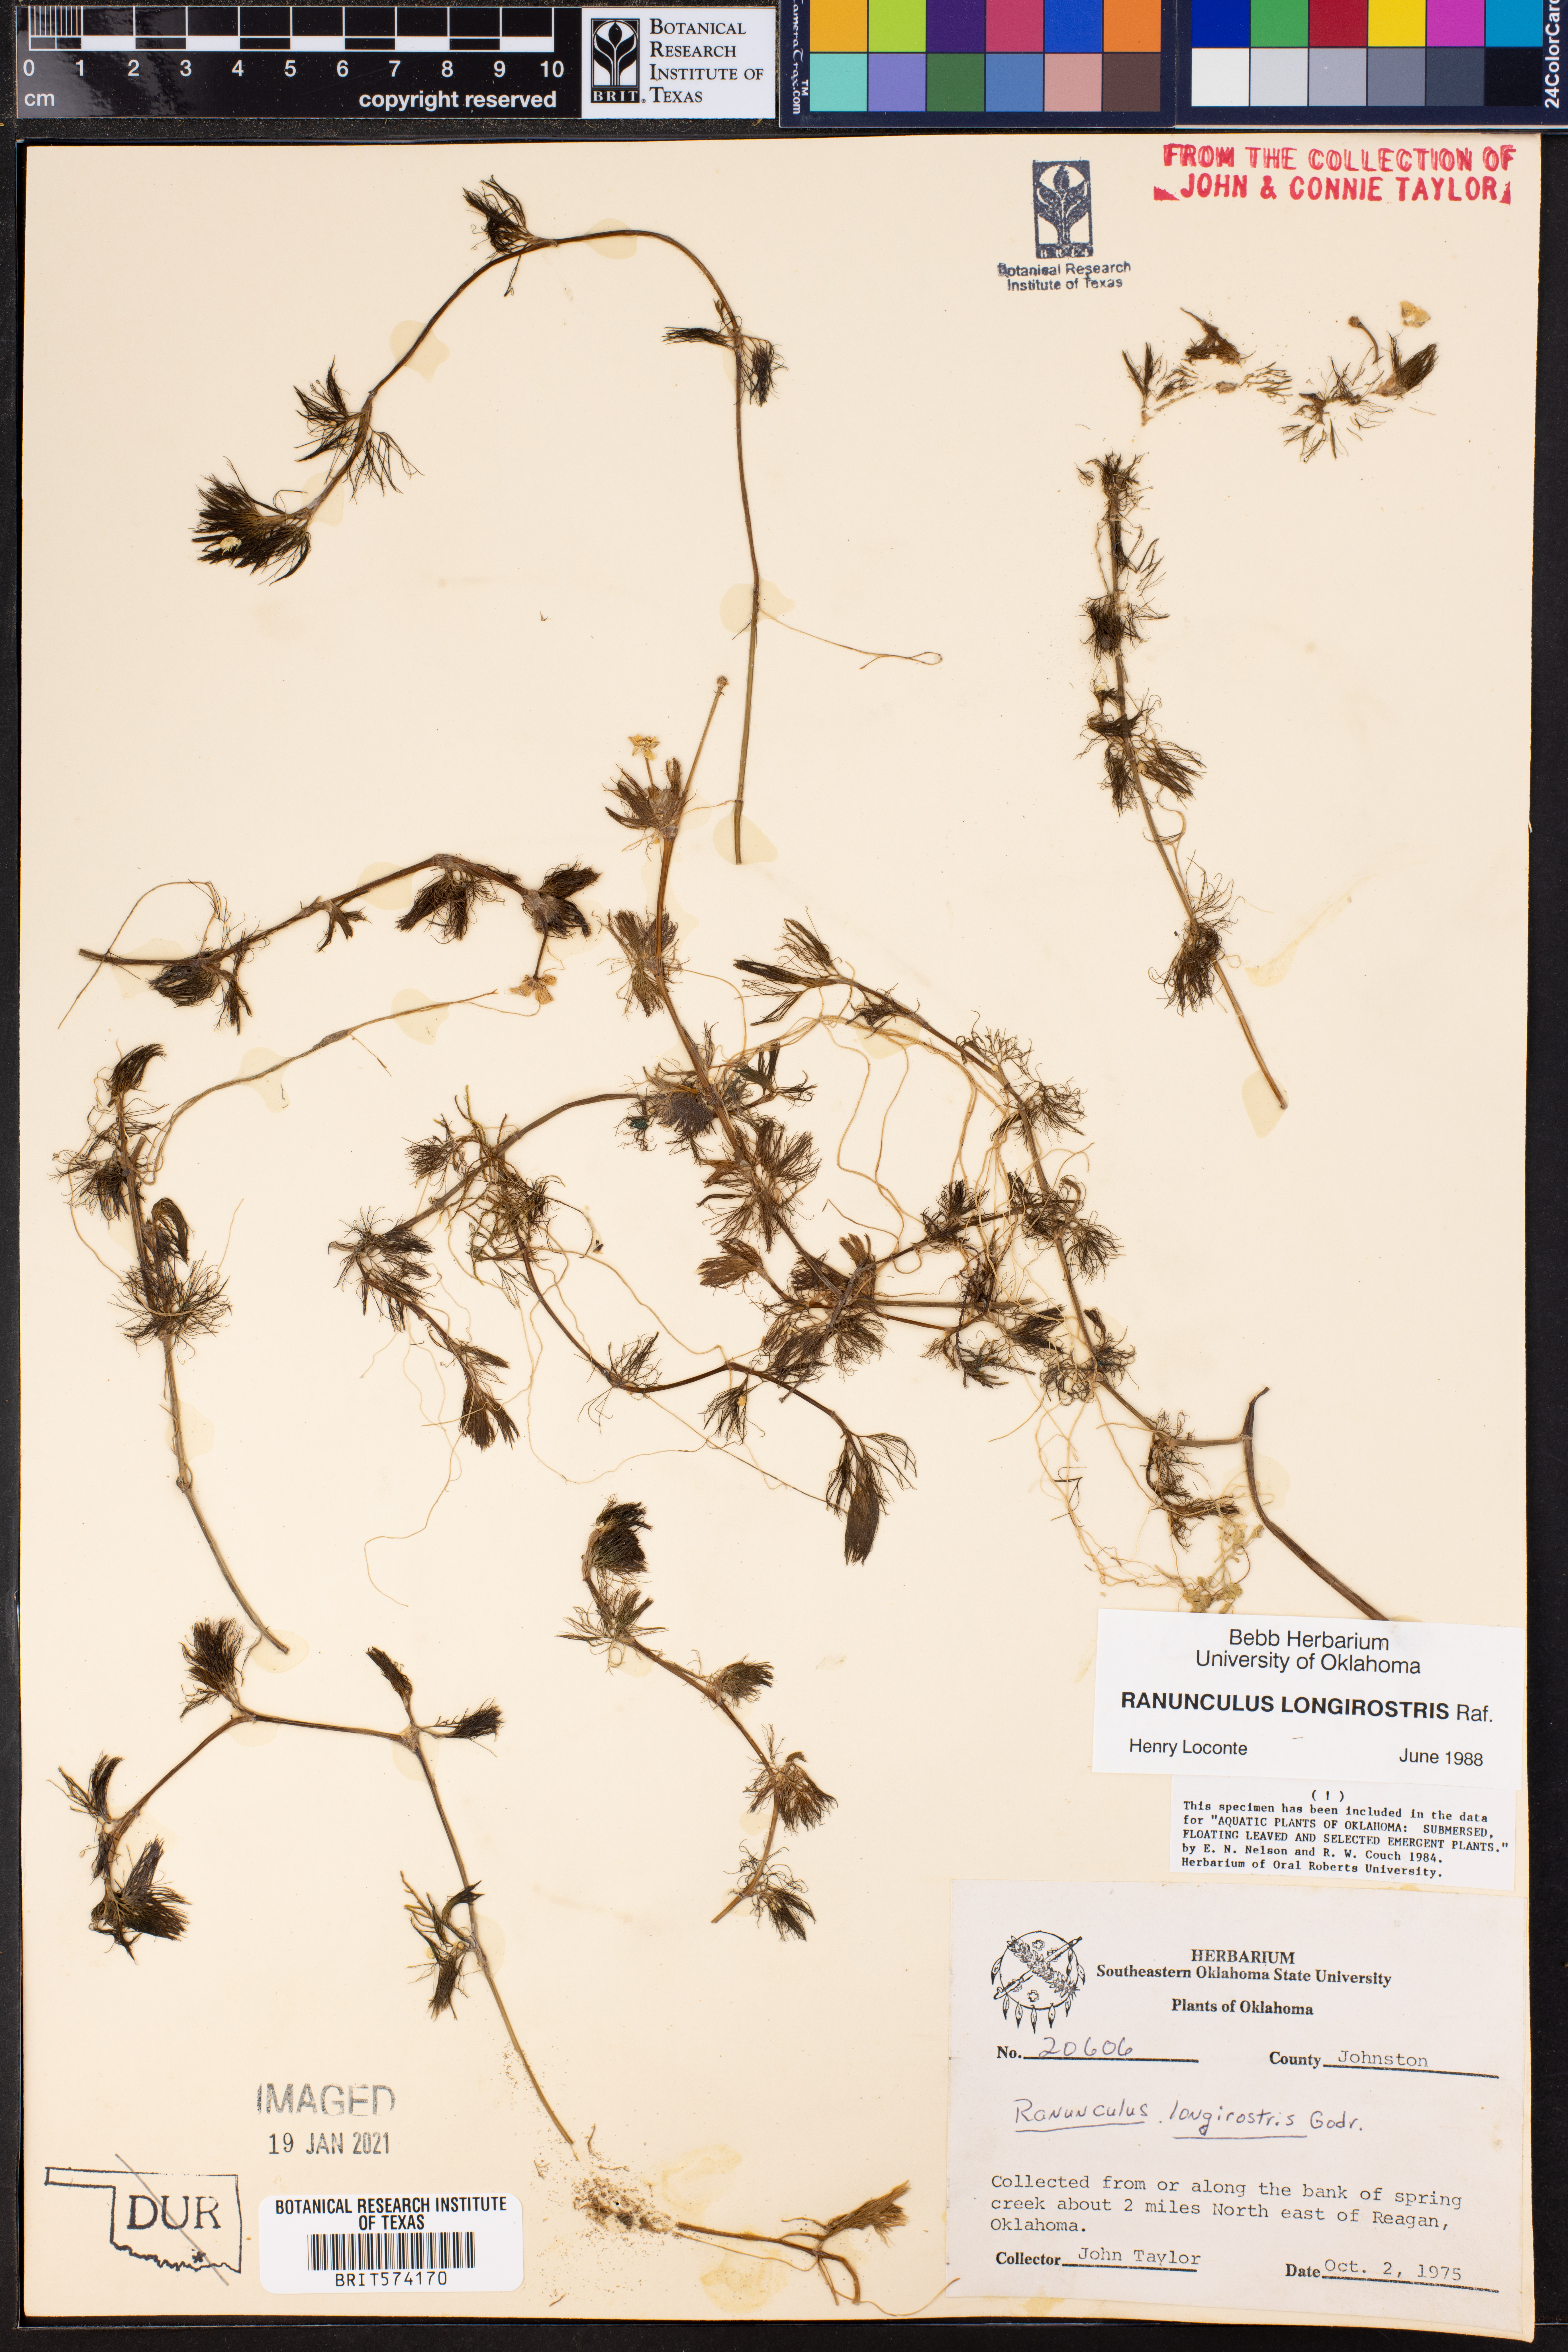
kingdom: Plantae
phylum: Tracheophyta
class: Magnoliopsida
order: Ranunculales
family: Ranunculaceae
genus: Ranunculus
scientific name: Ranunculus longirostris
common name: Curly white water-crowfoot
